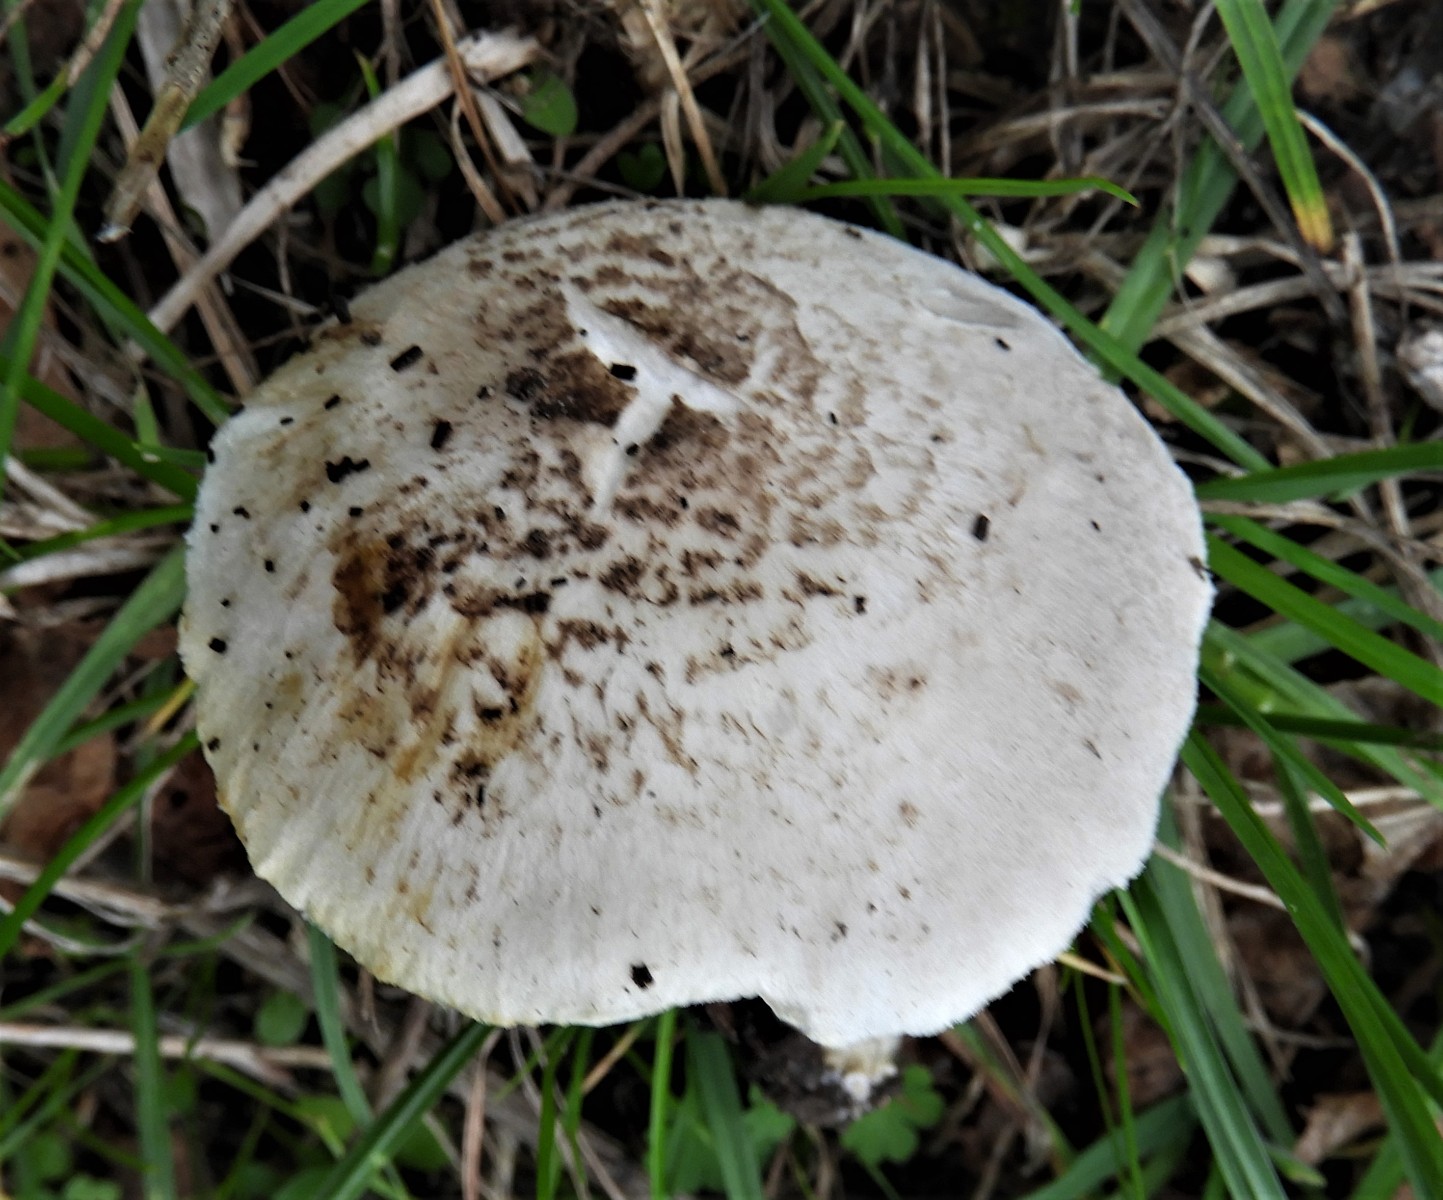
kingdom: Fungi
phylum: Basidiomycota
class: Agaricomycetes
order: Agaricales
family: Tricholomataceae
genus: Tricholoma
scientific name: Tricholoma scalpturatum
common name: gulplettet ridderhat
